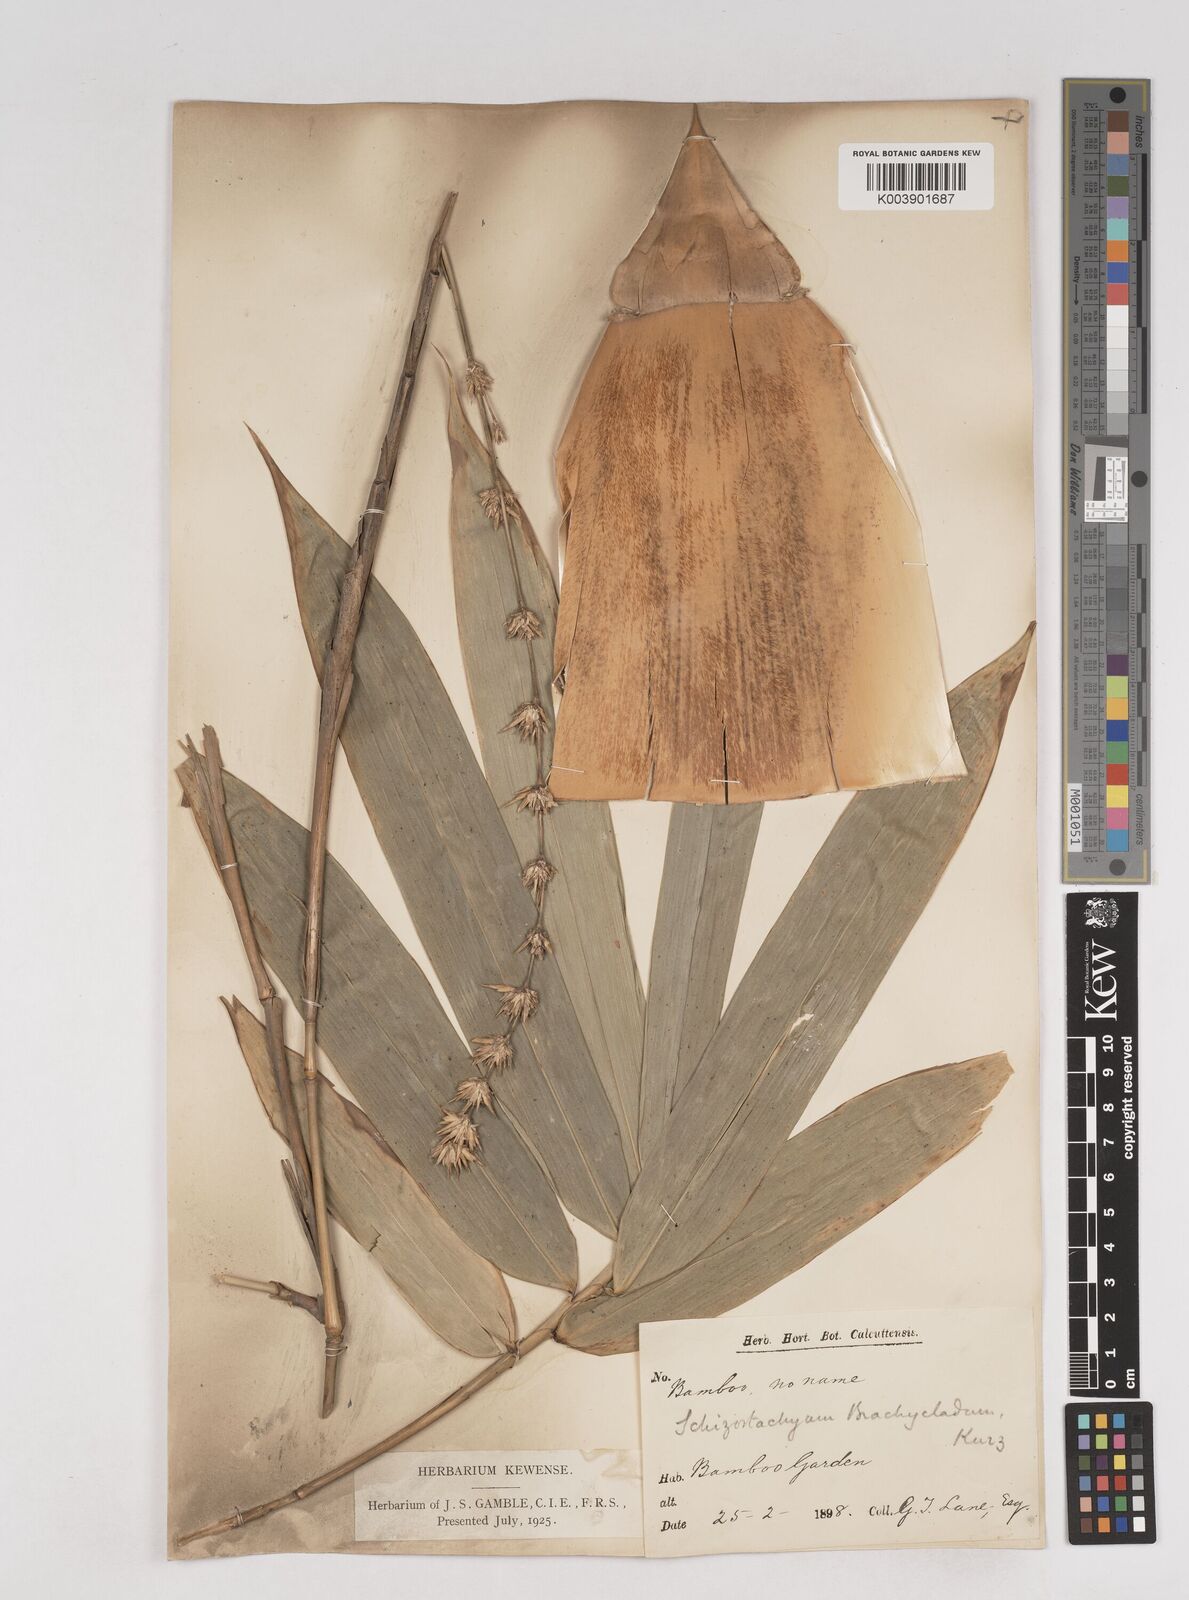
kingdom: Plantae
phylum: Tracheophyta
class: Liliopsida
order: Poales
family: Poaceae
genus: Schizostachyum
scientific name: Schizostachyum brachycladum
